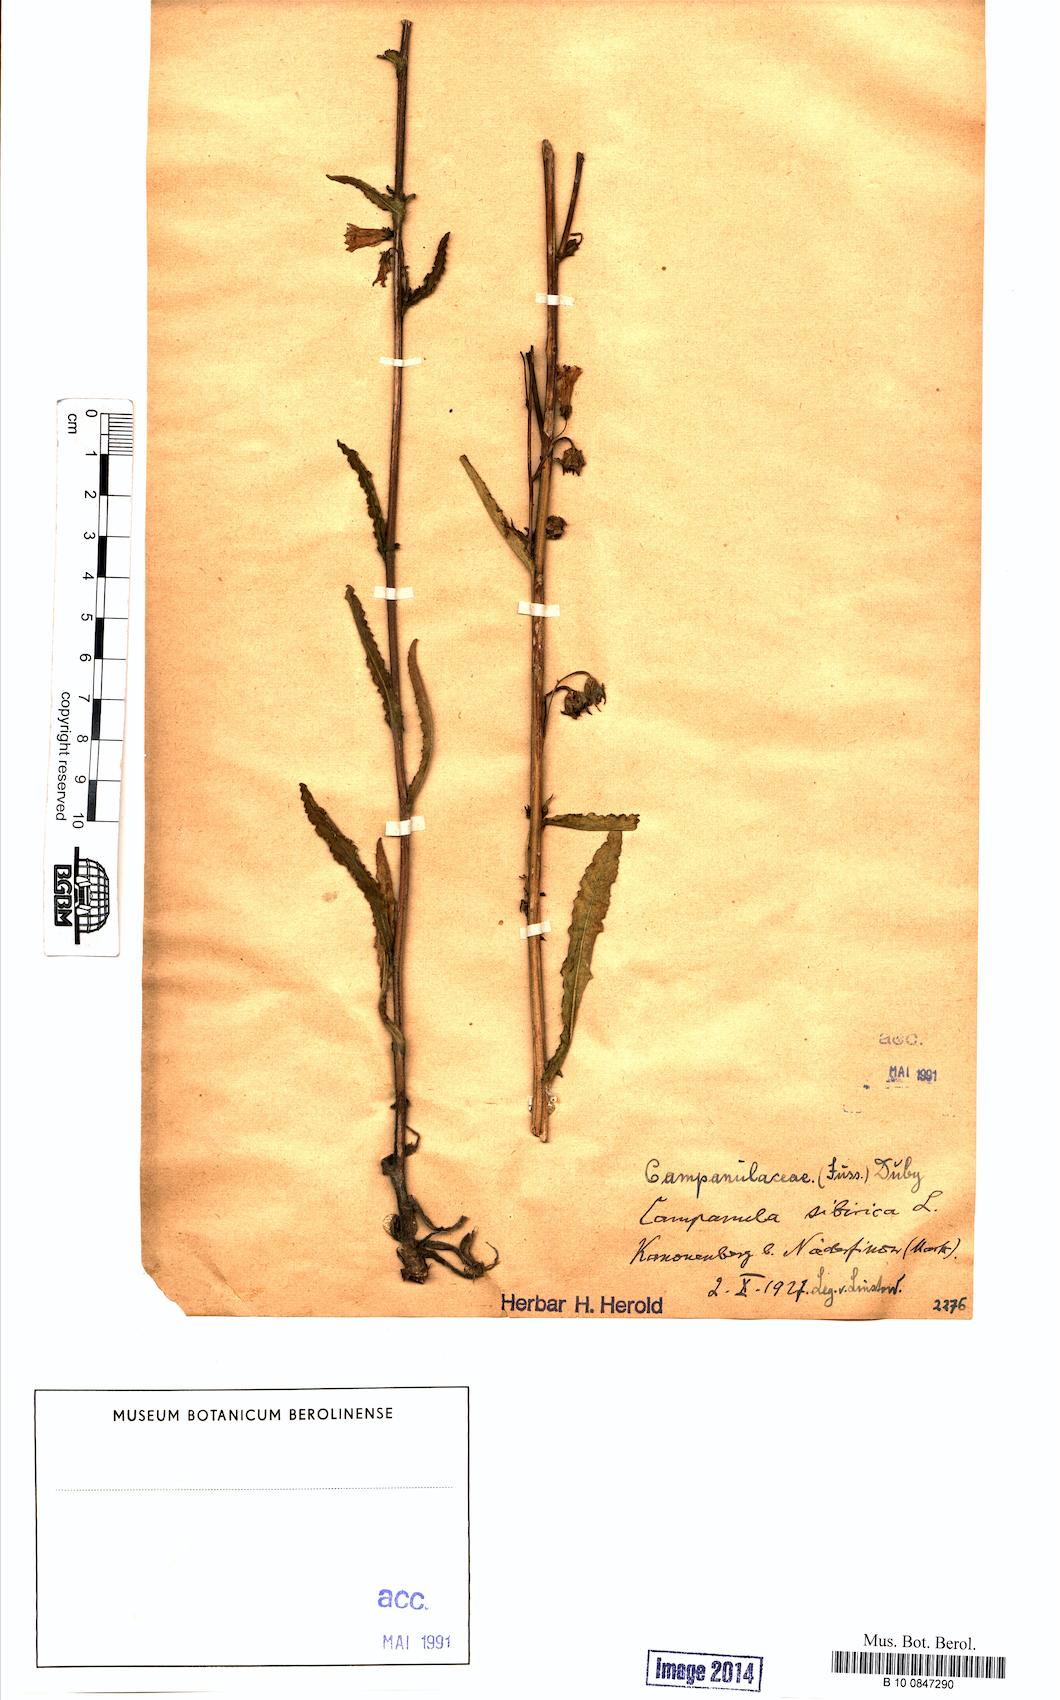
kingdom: Plantae
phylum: Tracheophyta
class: Magnoliopsida
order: Asterales
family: Campanulaceae
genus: Campanula
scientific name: Campanula sibirica
